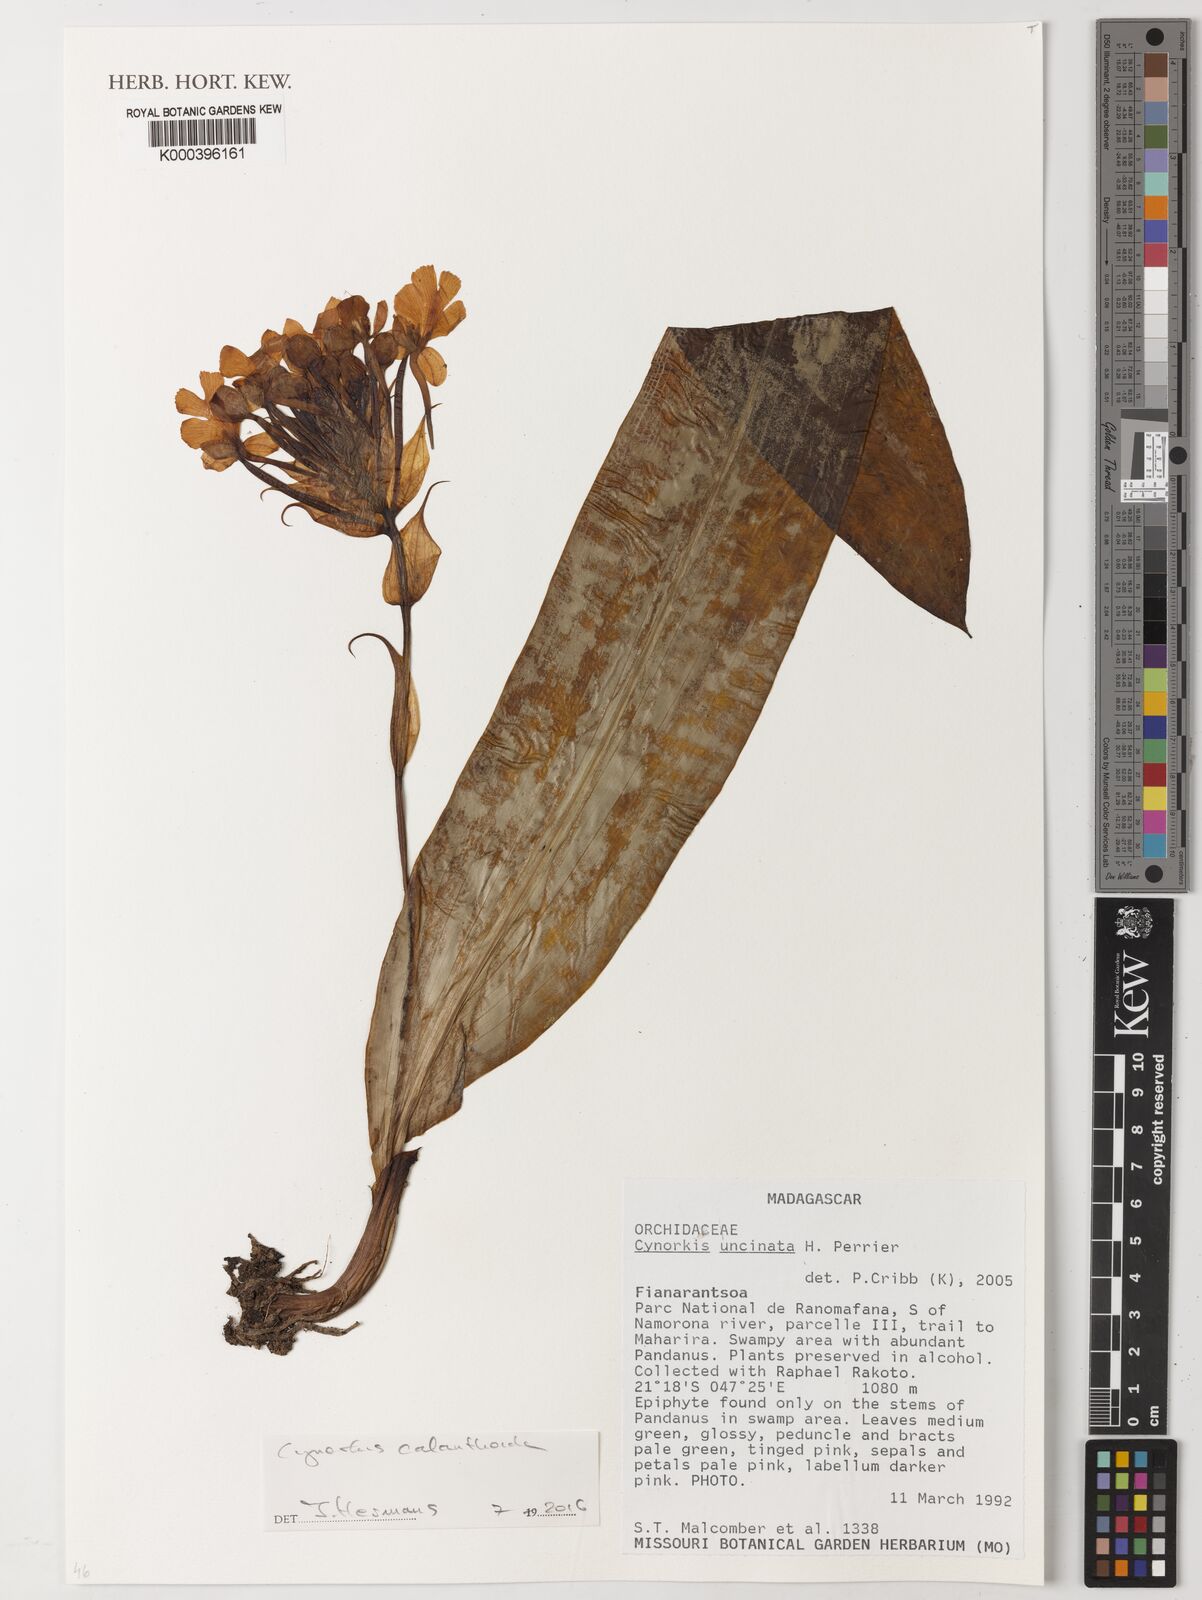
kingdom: Plantae
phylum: Tracheophyta
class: Liliopsida
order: Asparagales
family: Orchidaceae
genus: Cynorkis
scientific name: Cynorkis calanthoides
